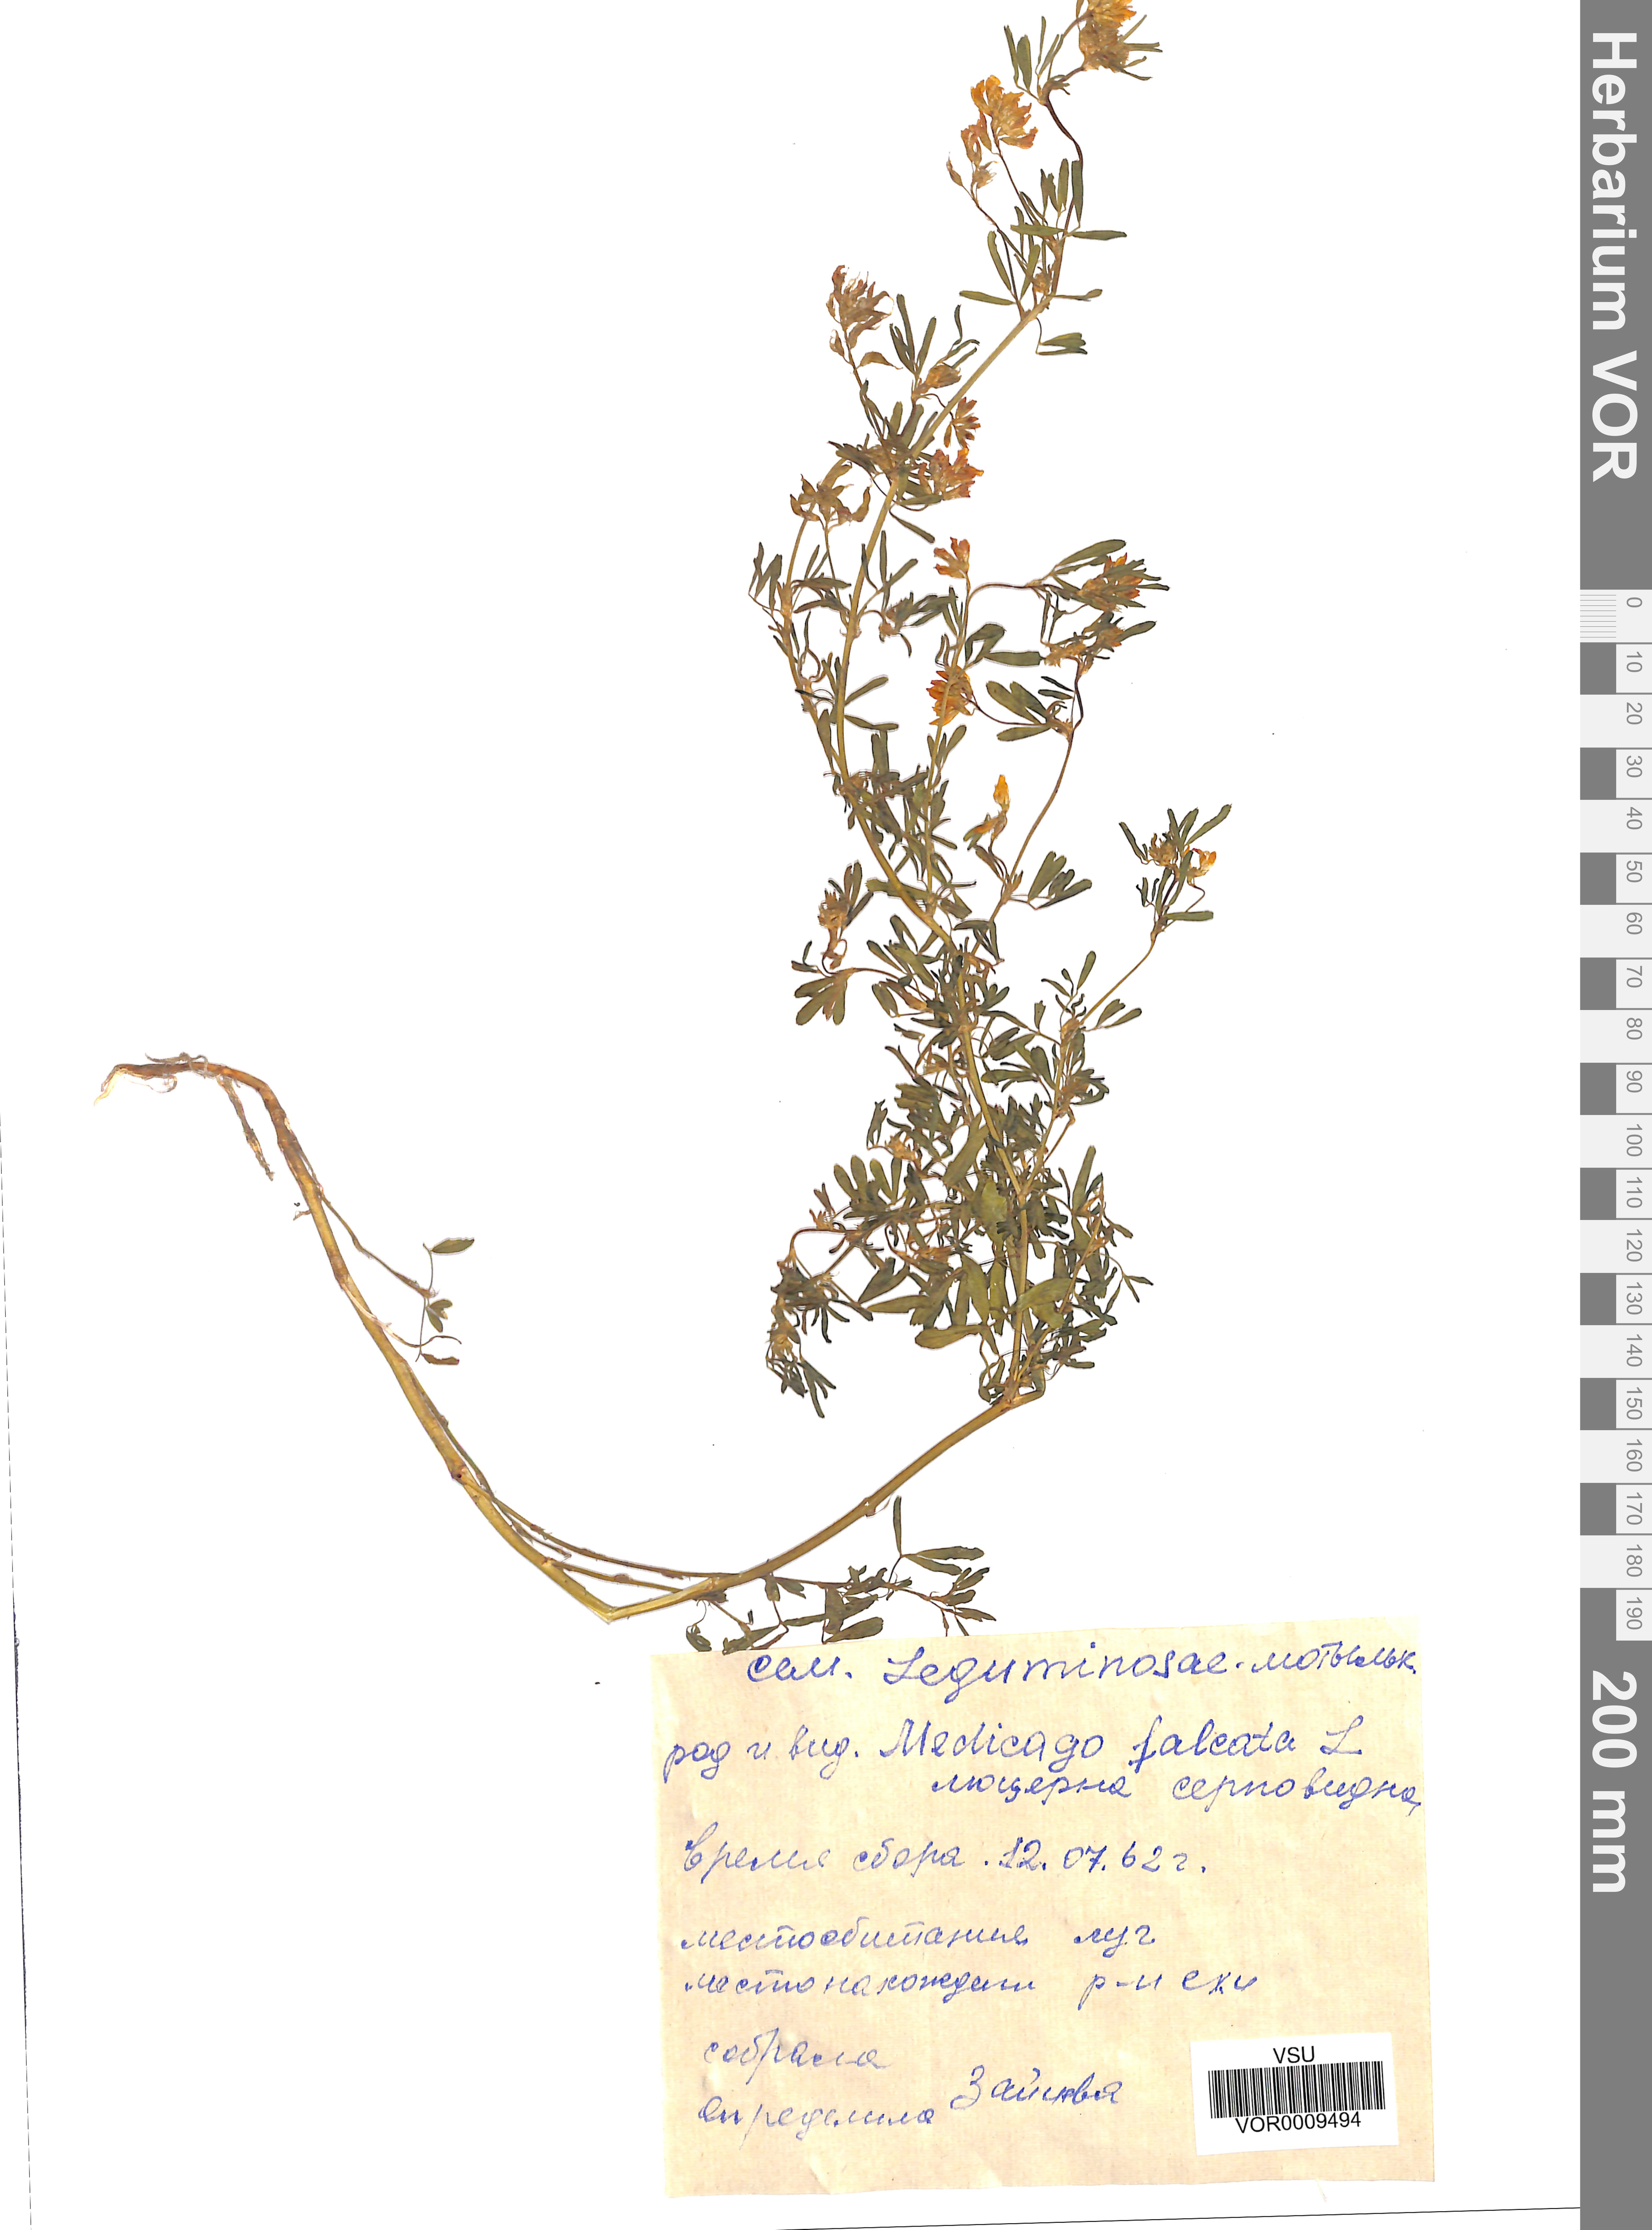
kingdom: Plantae
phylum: Tracheophyta
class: Magnoliopsida
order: Fabales
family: Fabaceae
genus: Medicago
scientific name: Medicago falcata
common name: Sickle medick
